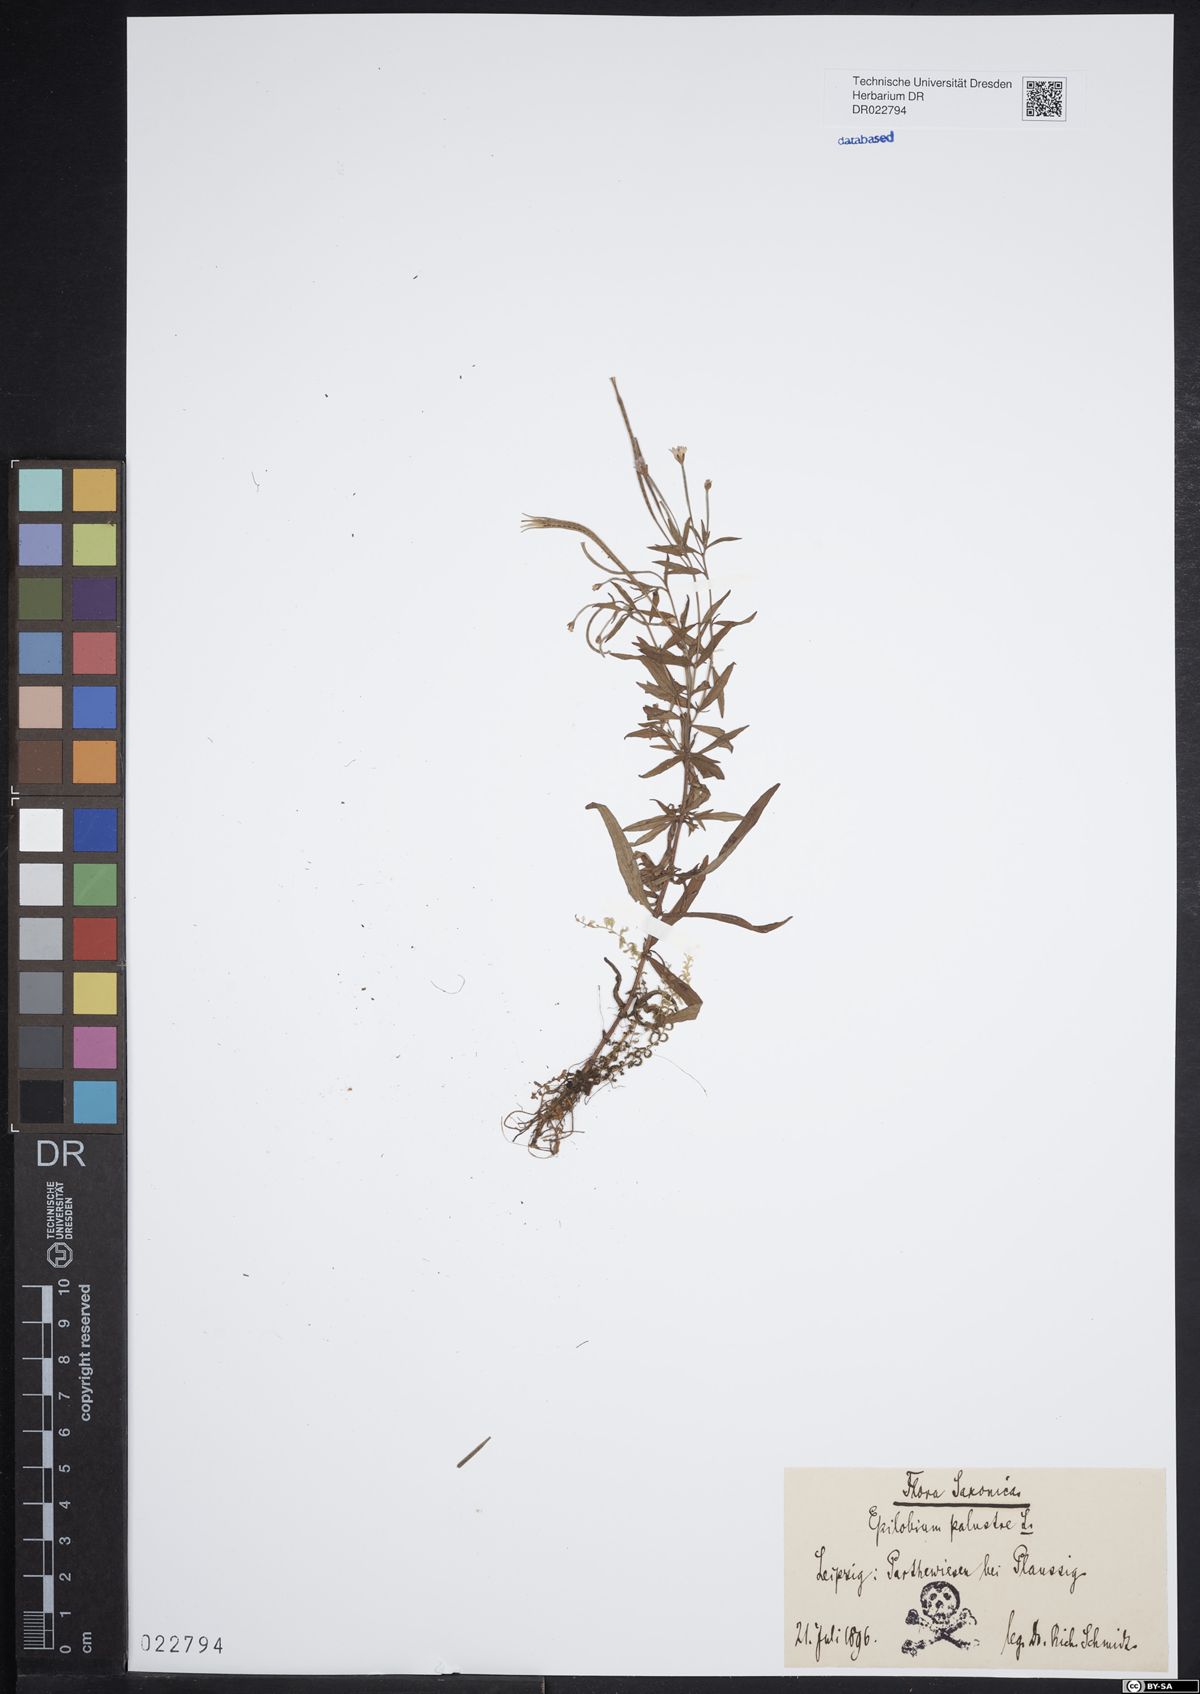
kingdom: Plantae
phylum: Tracheophyta
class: Magnoliopsida
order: Myrtales
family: Onagraceae
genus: Epilobium
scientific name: Epilobium palustre
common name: Marsh willowherb
